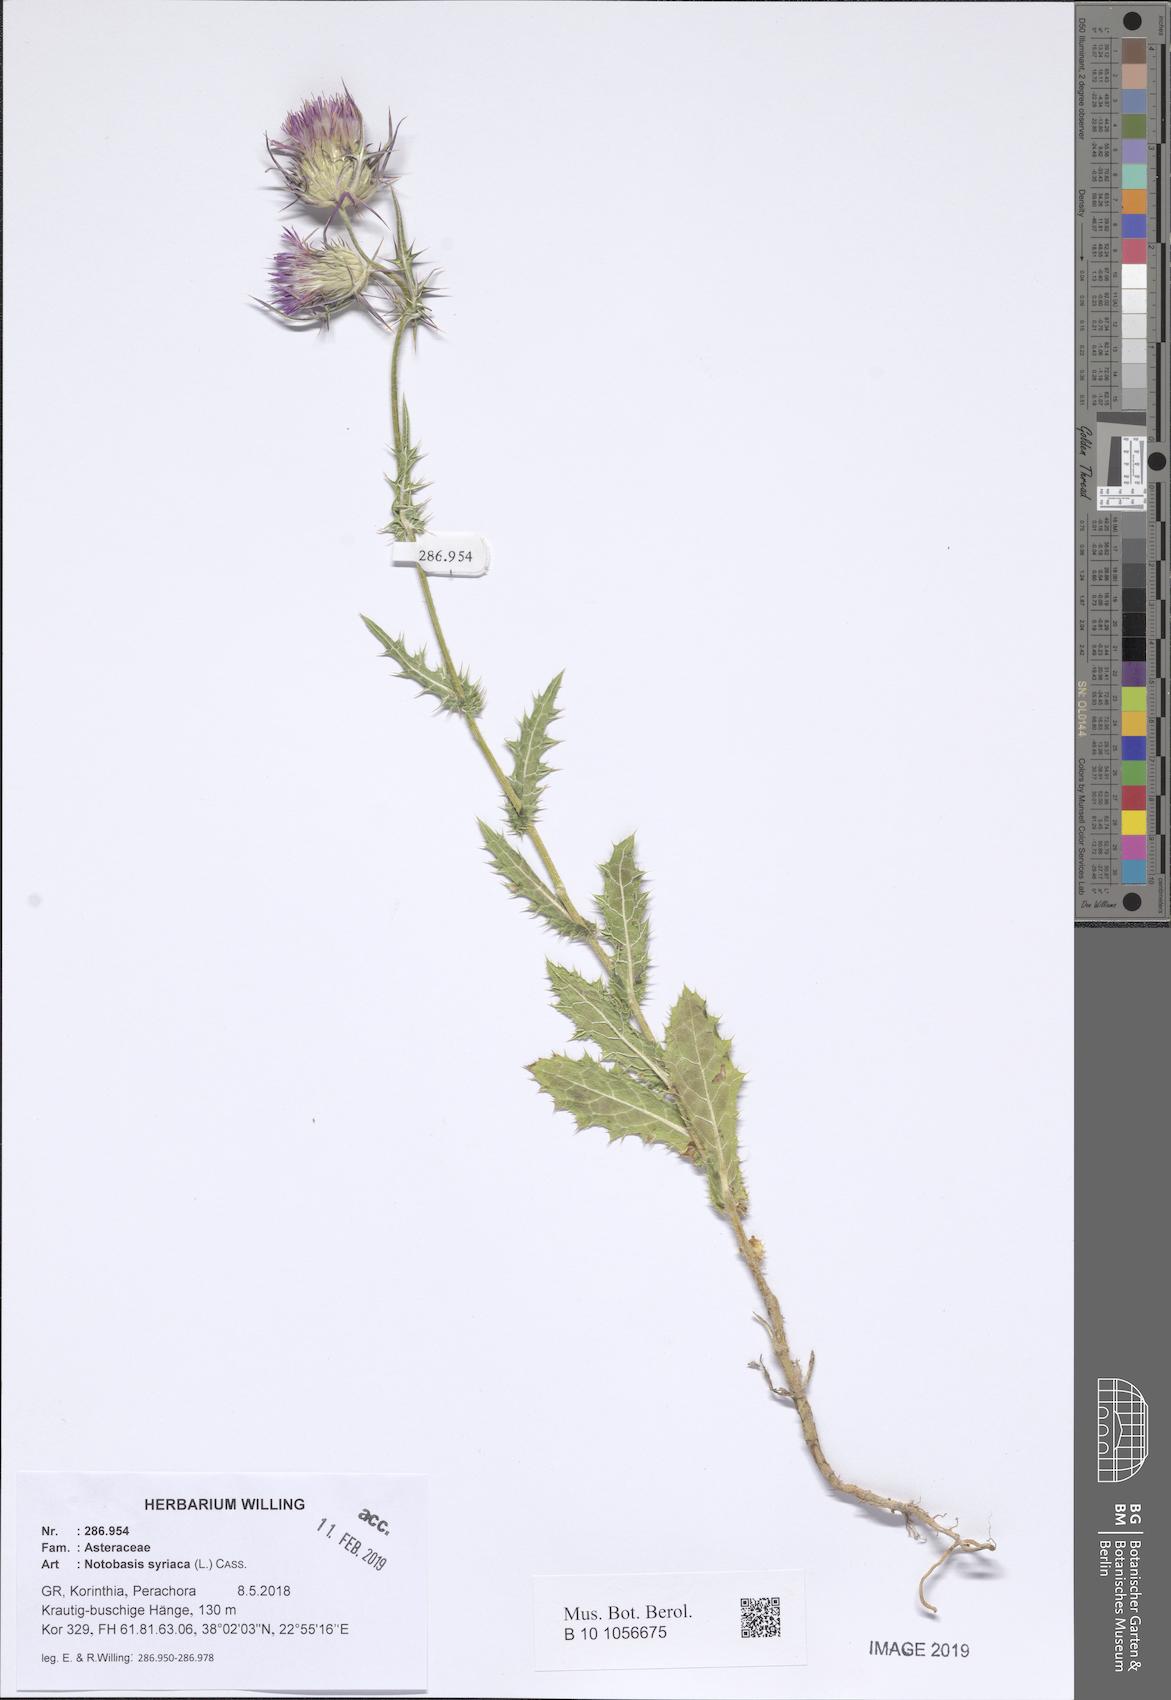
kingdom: Plantae
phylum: Tracheophyta
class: Magnoliopsida
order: Asterales
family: Asteraceae
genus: Notobasis
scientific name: Notobasis syriaca
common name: Syrian thistle
